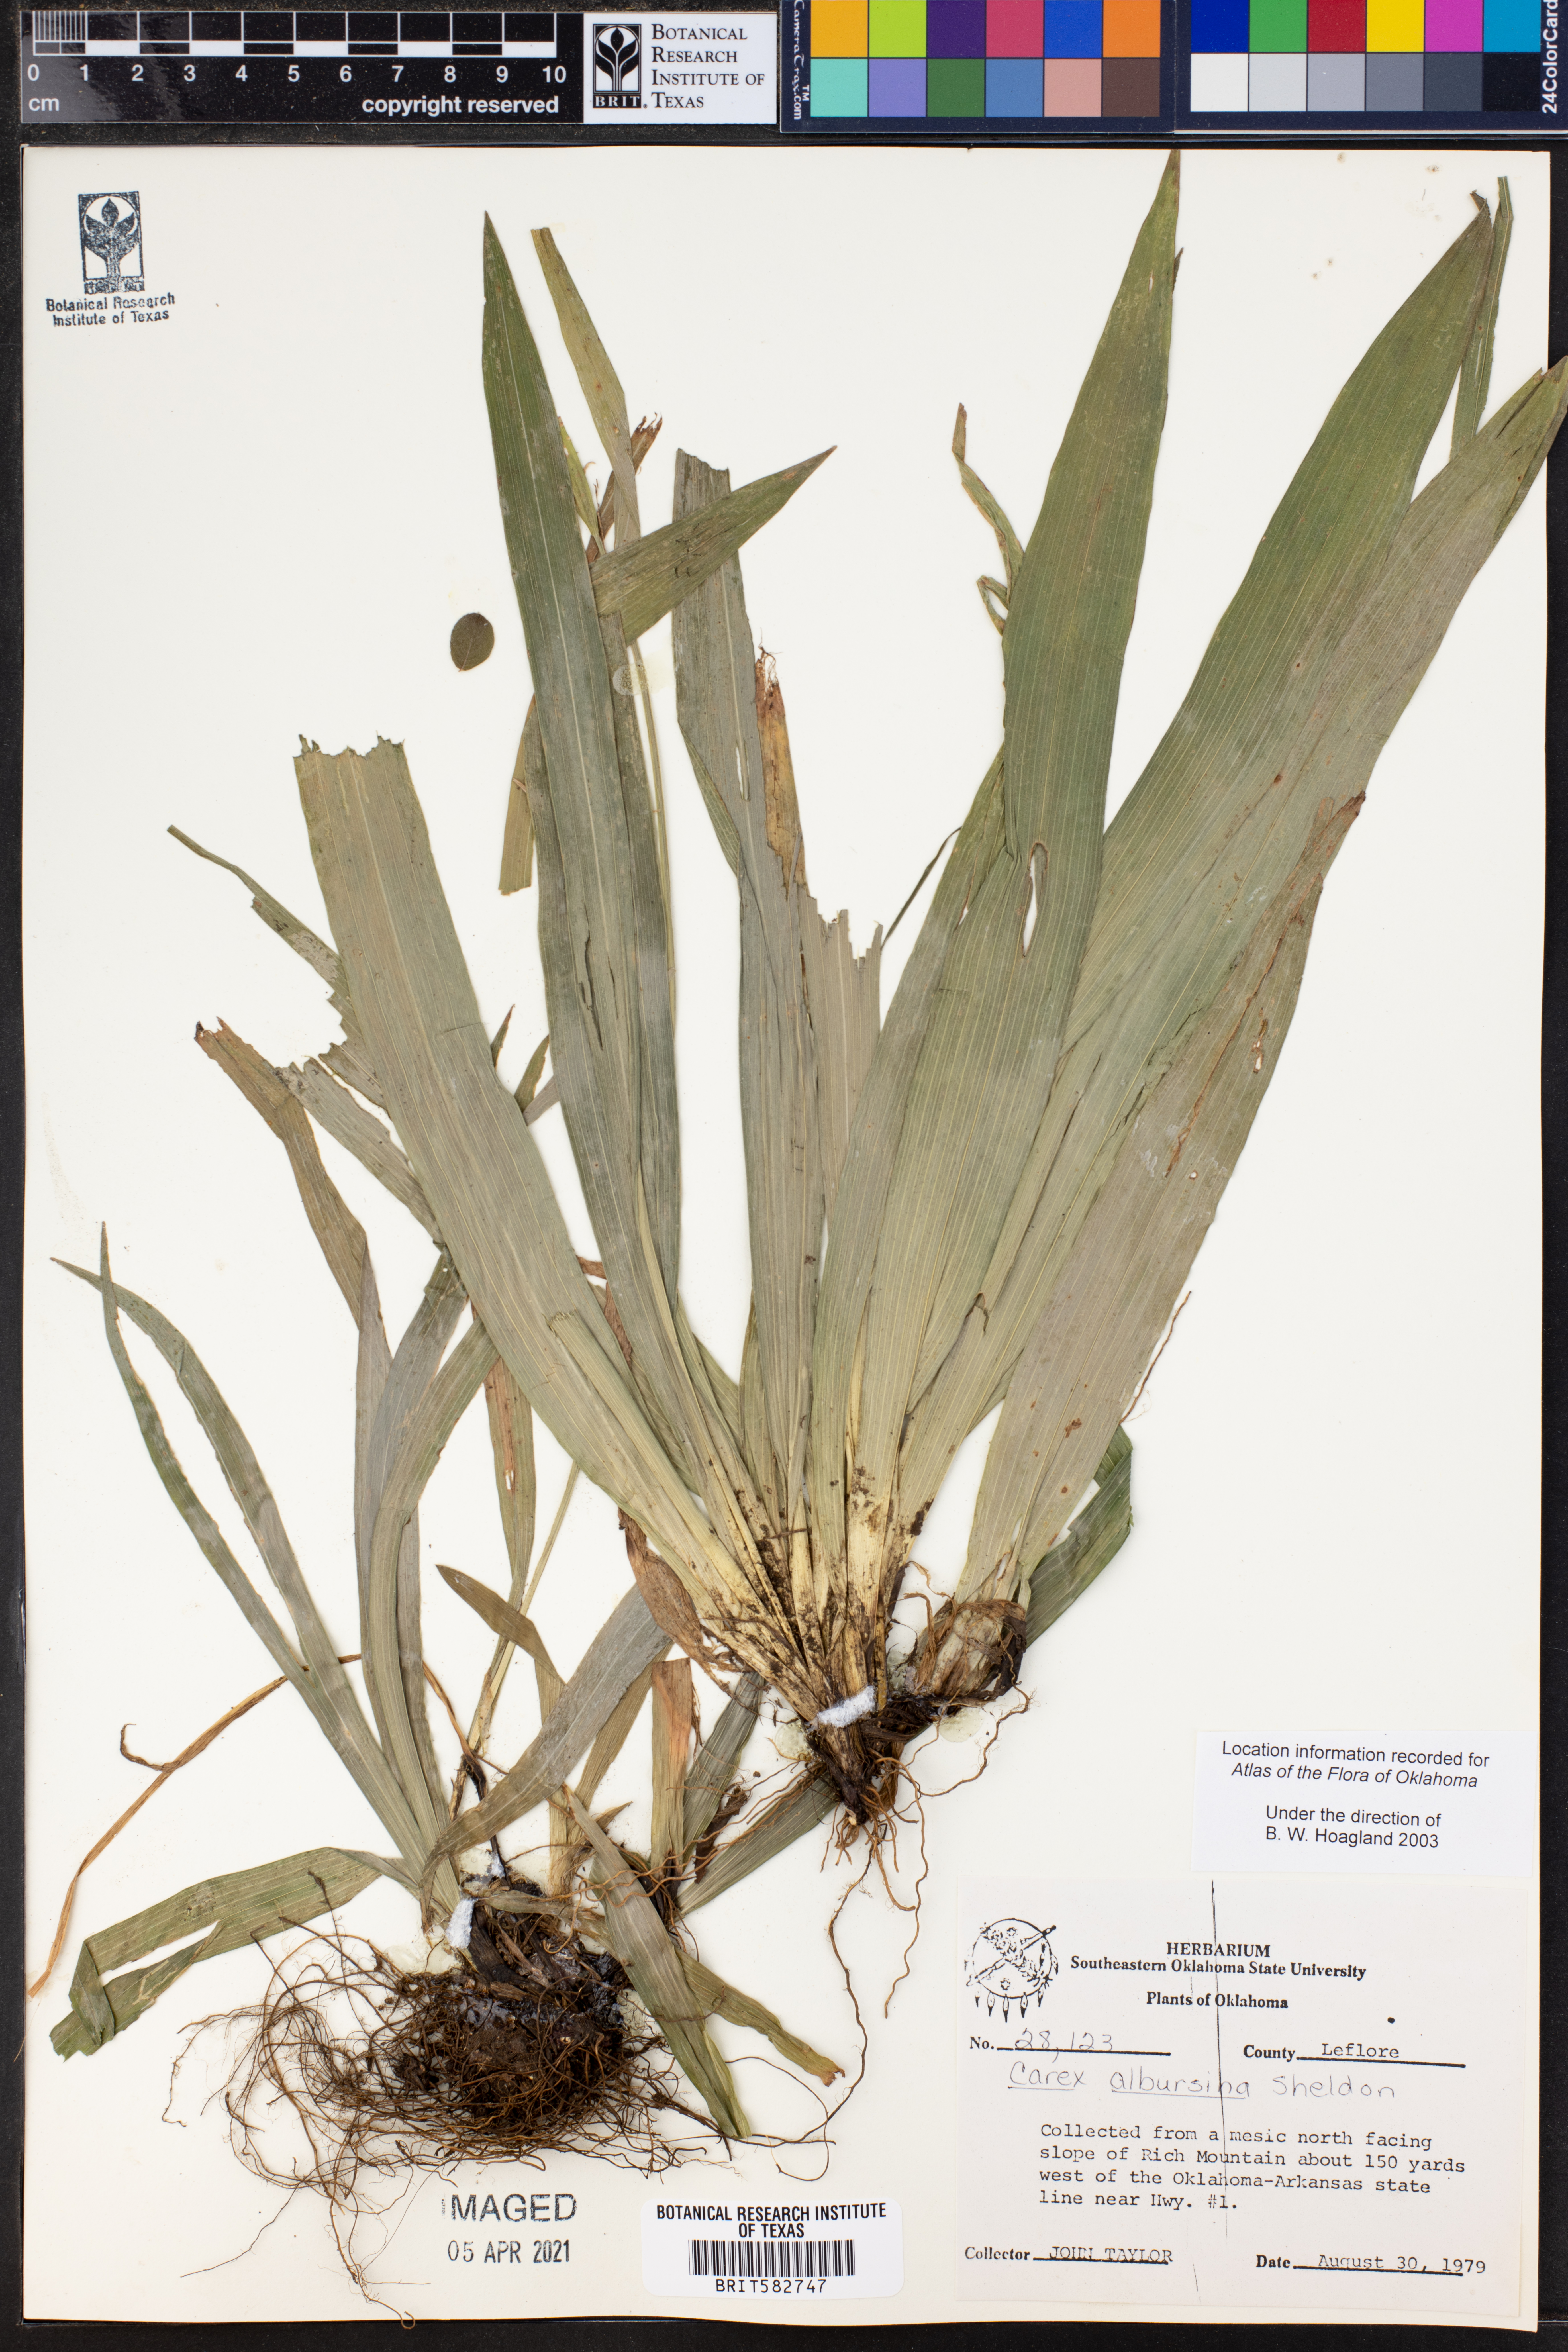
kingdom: Plantae
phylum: Tracheophyta
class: Liliopsida
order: Poales
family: Cyperaceae
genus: Carex
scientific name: Carex albursina
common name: Blunt-scale wood sedge
